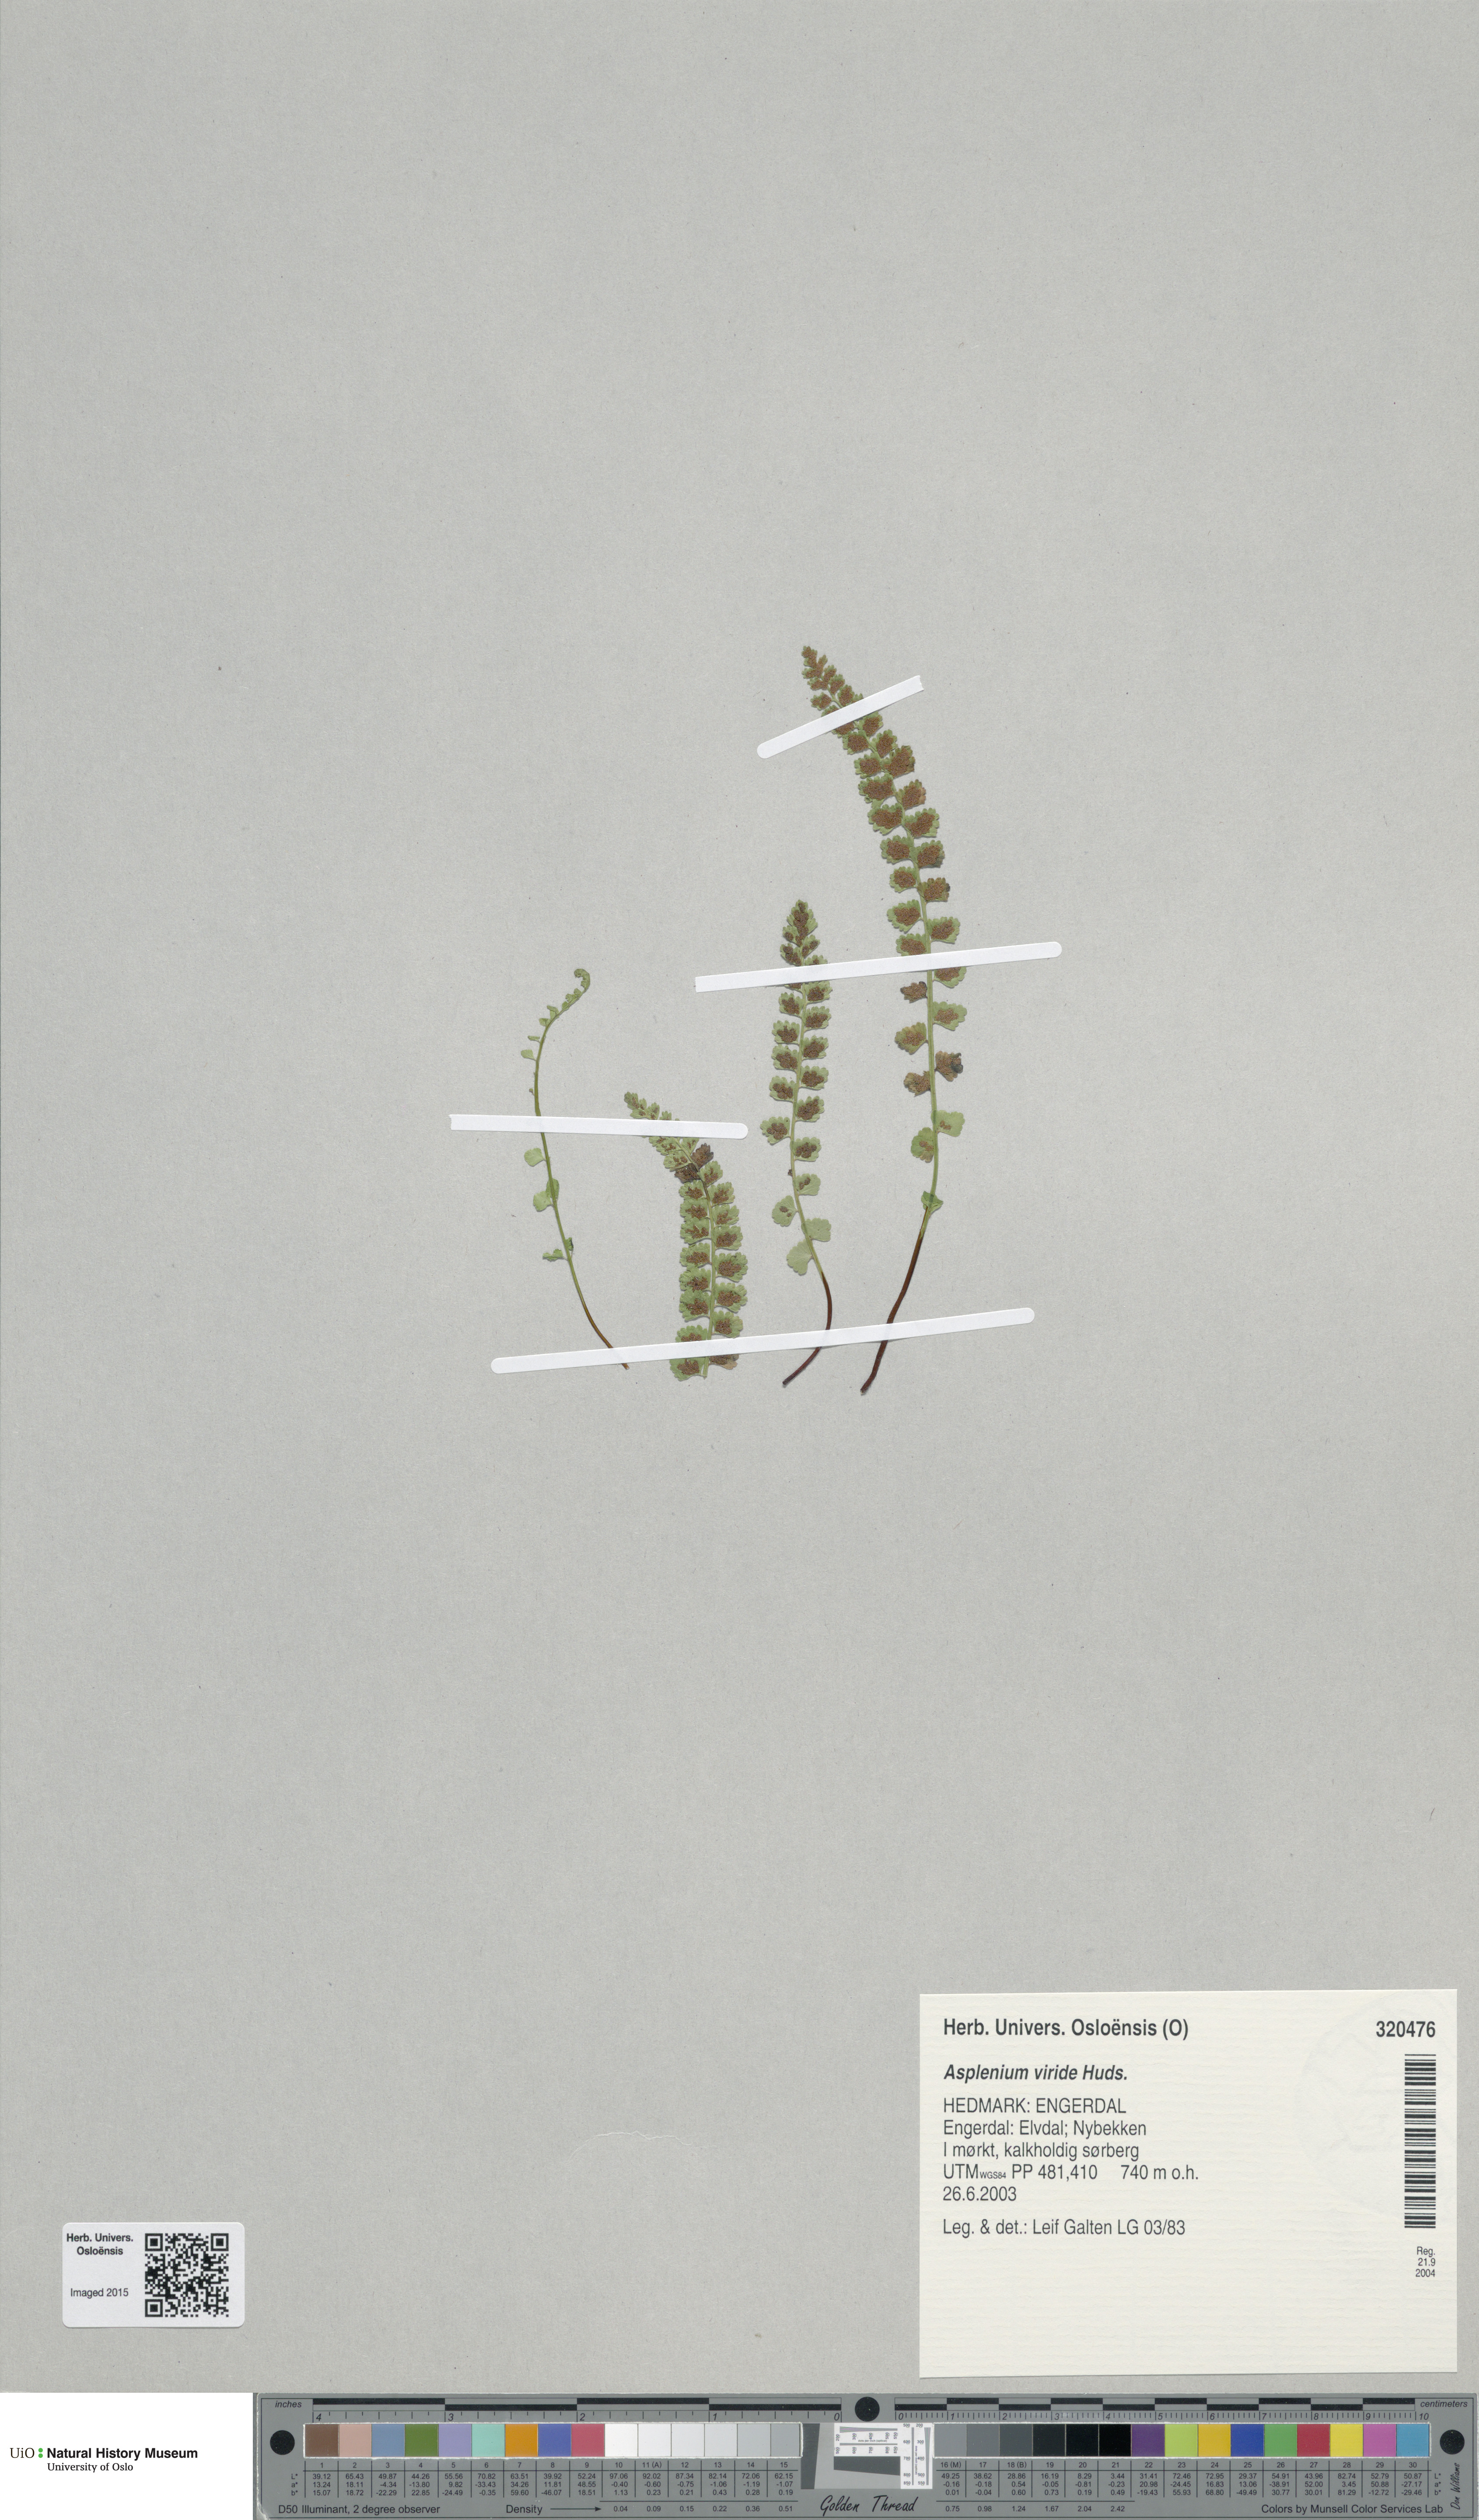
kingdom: Plantae
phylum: Tracheophyta
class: Polypodiopsida
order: Polypodiales
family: Aspleniaceae
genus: Asplenium
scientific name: Asplenium viride
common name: Green spleenwort
